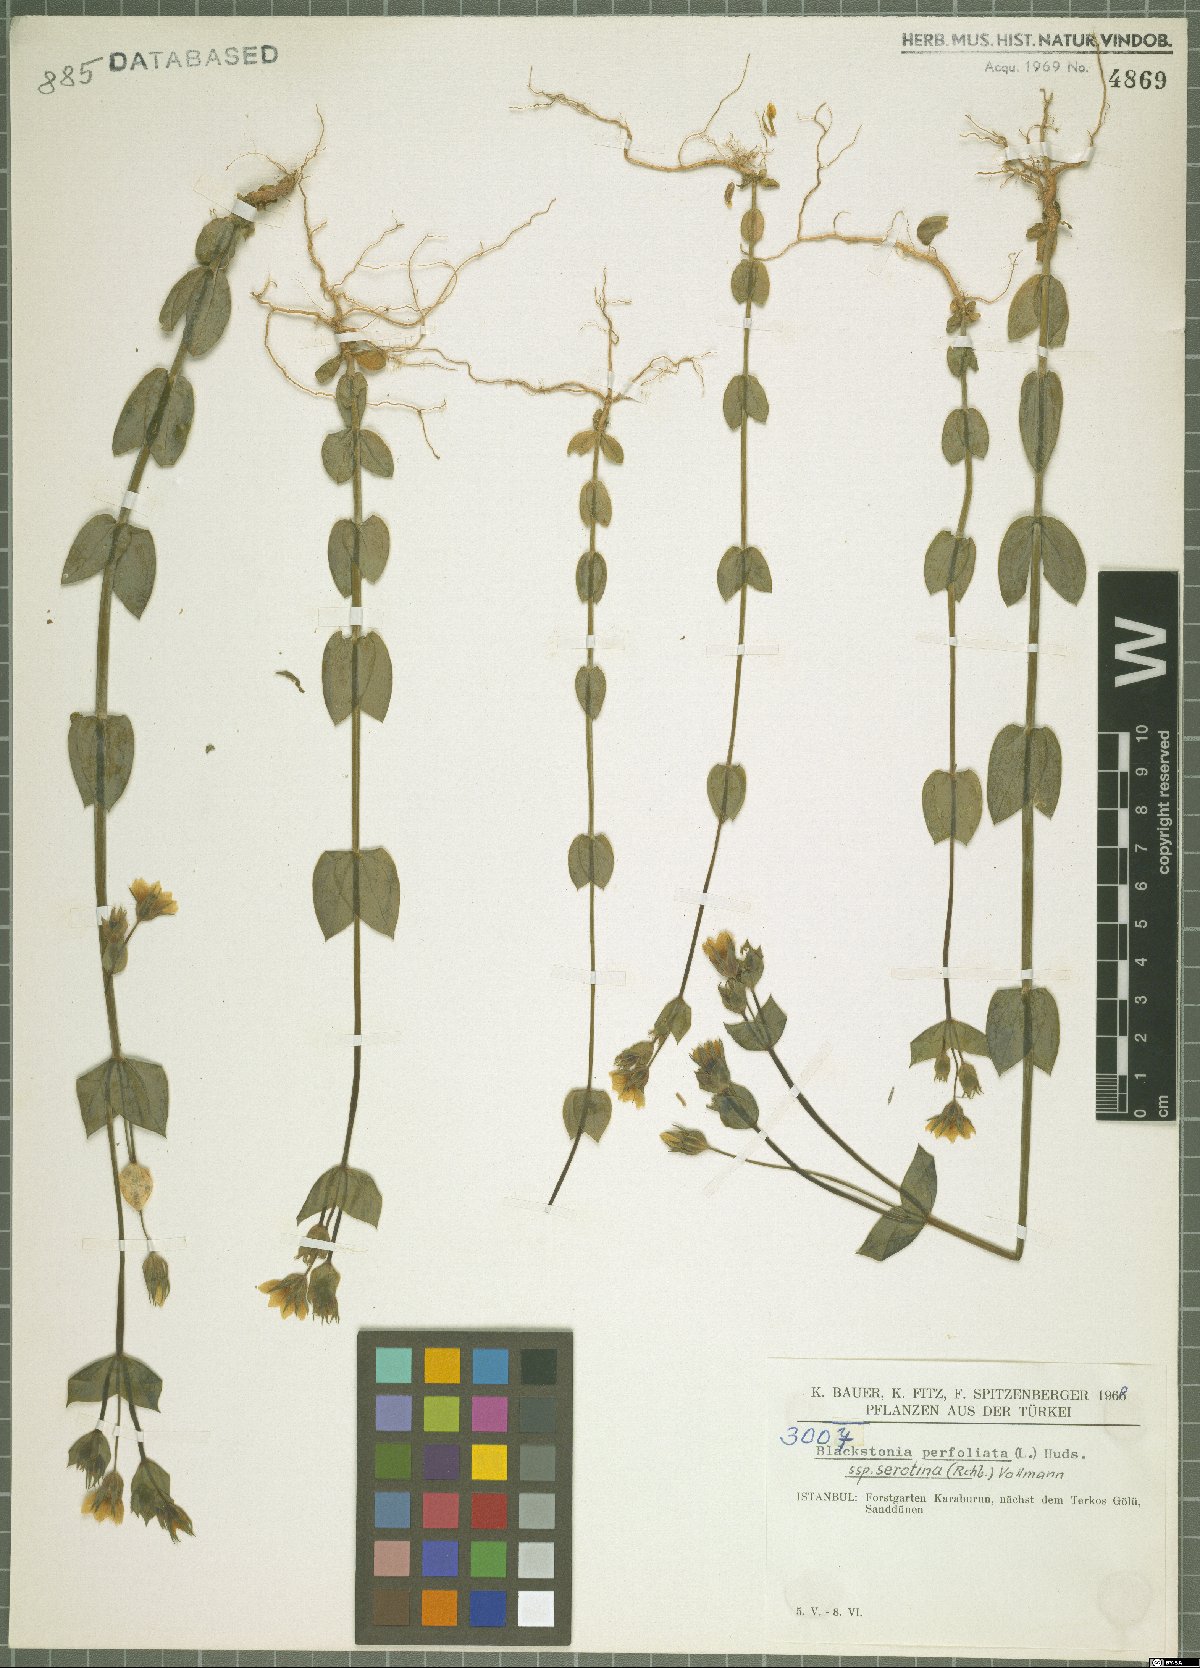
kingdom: Plantae
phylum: Tracheophyta
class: Magnoliopsida
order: Gentianales
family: Gentianaceae
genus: Blackstonia
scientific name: Blackstonia acuminata
